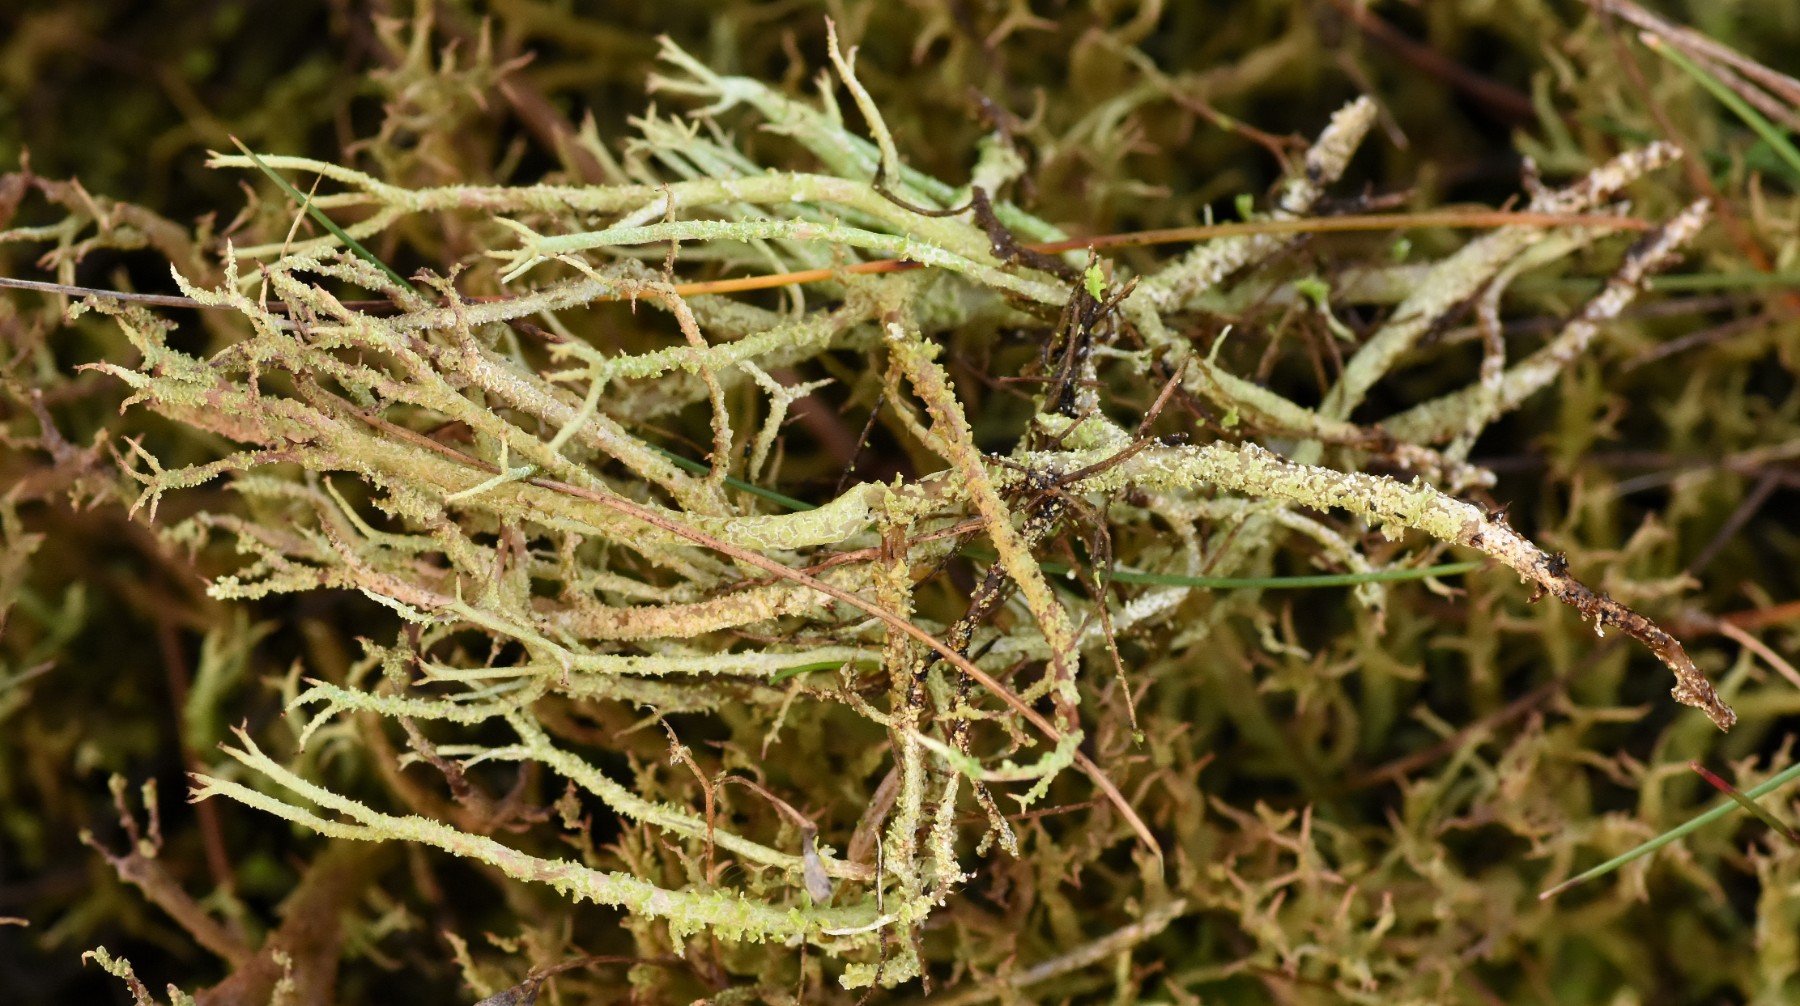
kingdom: Fungi
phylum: Ascomycota
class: Lecanoromycetes
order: Lecanorales
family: Cladoniaceae
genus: Cladonia
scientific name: Cladonia scabriuscula
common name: ru bægerlav
